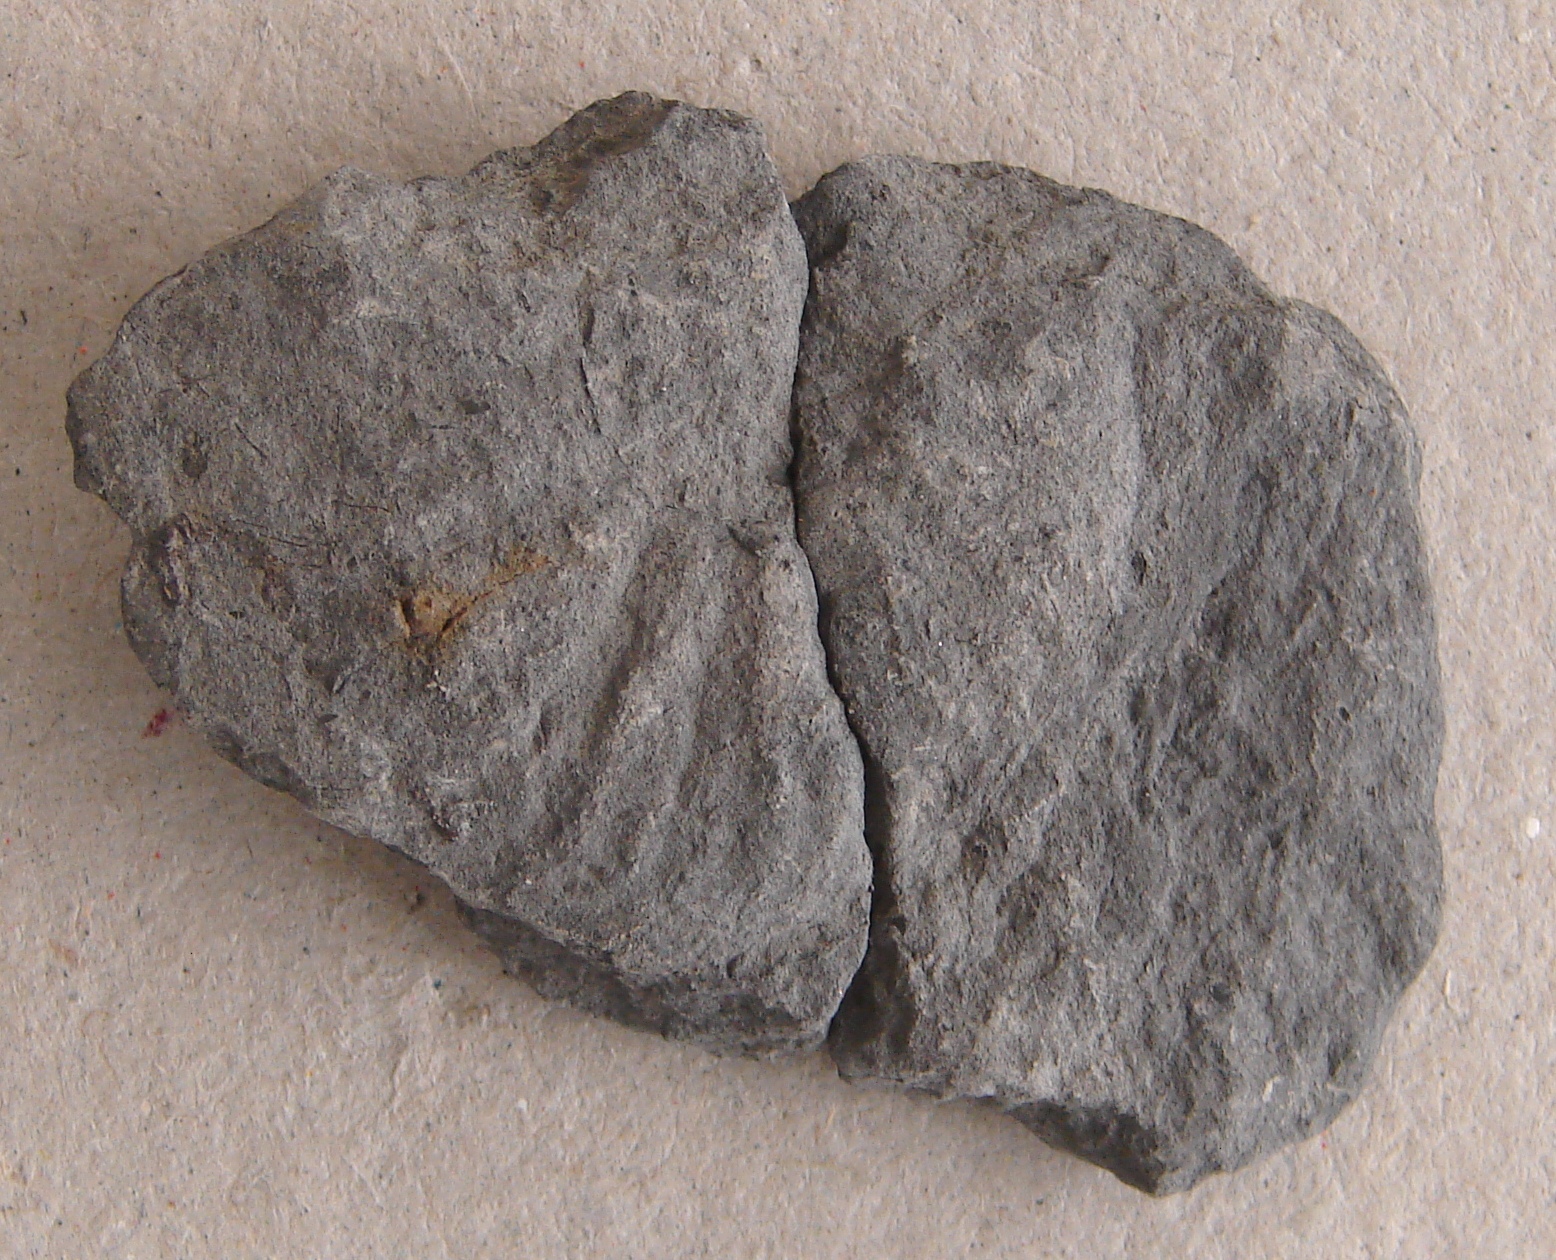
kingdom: Animalia
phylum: Mollusca
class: Cephalopoda
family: Sonniniidae
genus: Sonninia
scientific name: Sonninia propinquans
